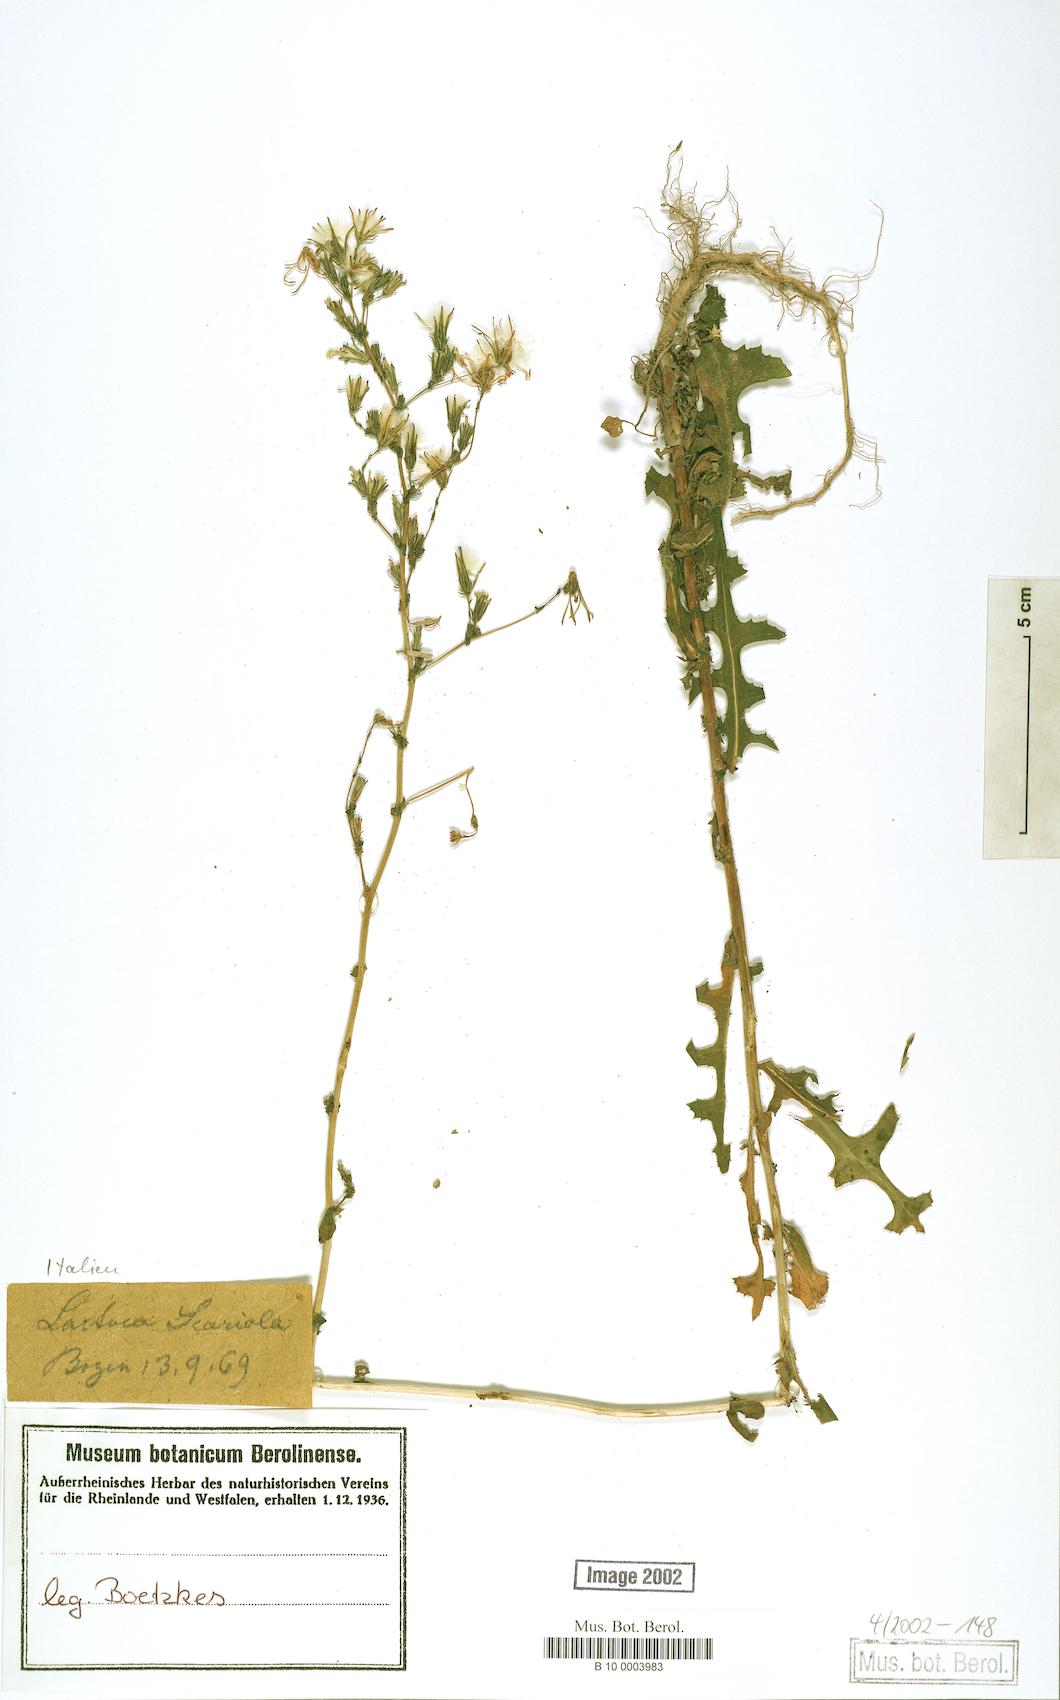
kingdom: Plantae
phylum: Tracheophyta
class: Magnoliopsida
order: Asterales
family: Asteraceae
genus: Lactuca
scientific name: Lactuca serriola
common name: Prickly lettuce
